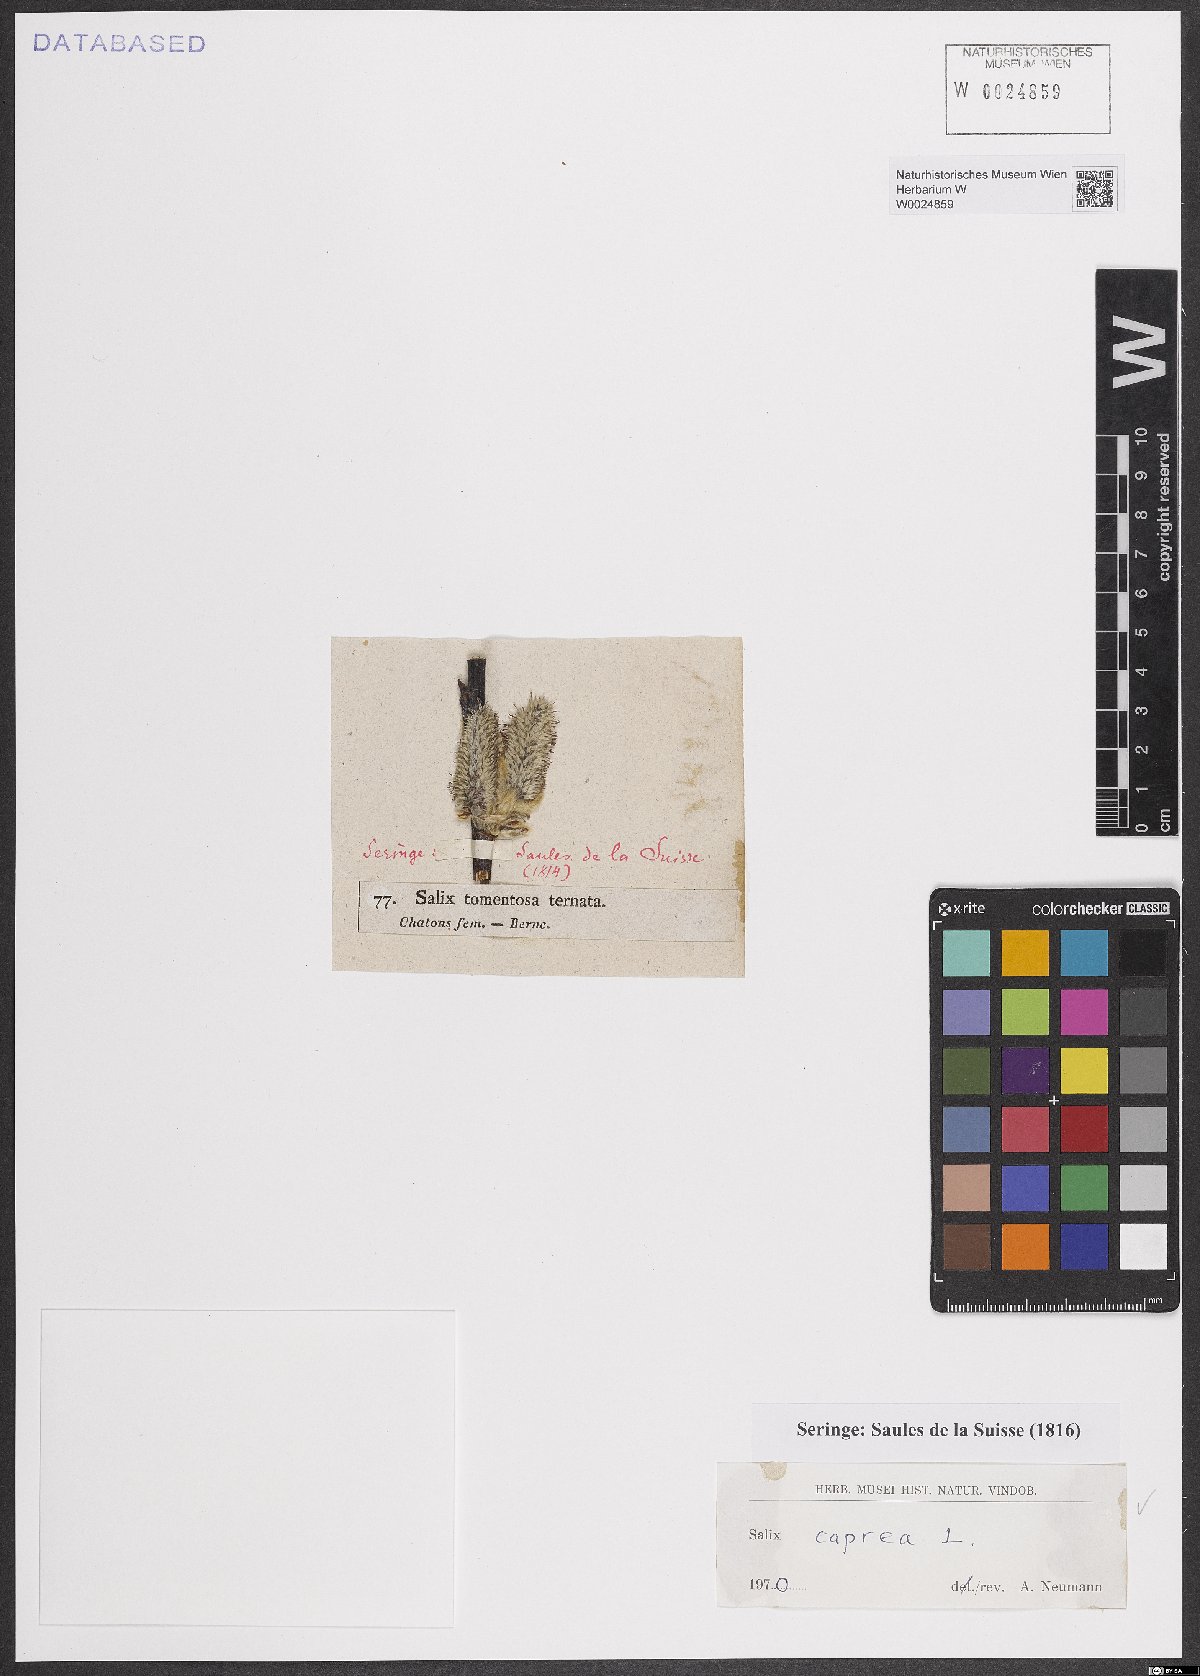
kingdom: Plantae
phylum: Tracheophyta
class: Magnoliopsida
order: Malpighiales
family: Salicaceae
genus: Salix
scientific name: Salix caprea
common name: Goat willow
